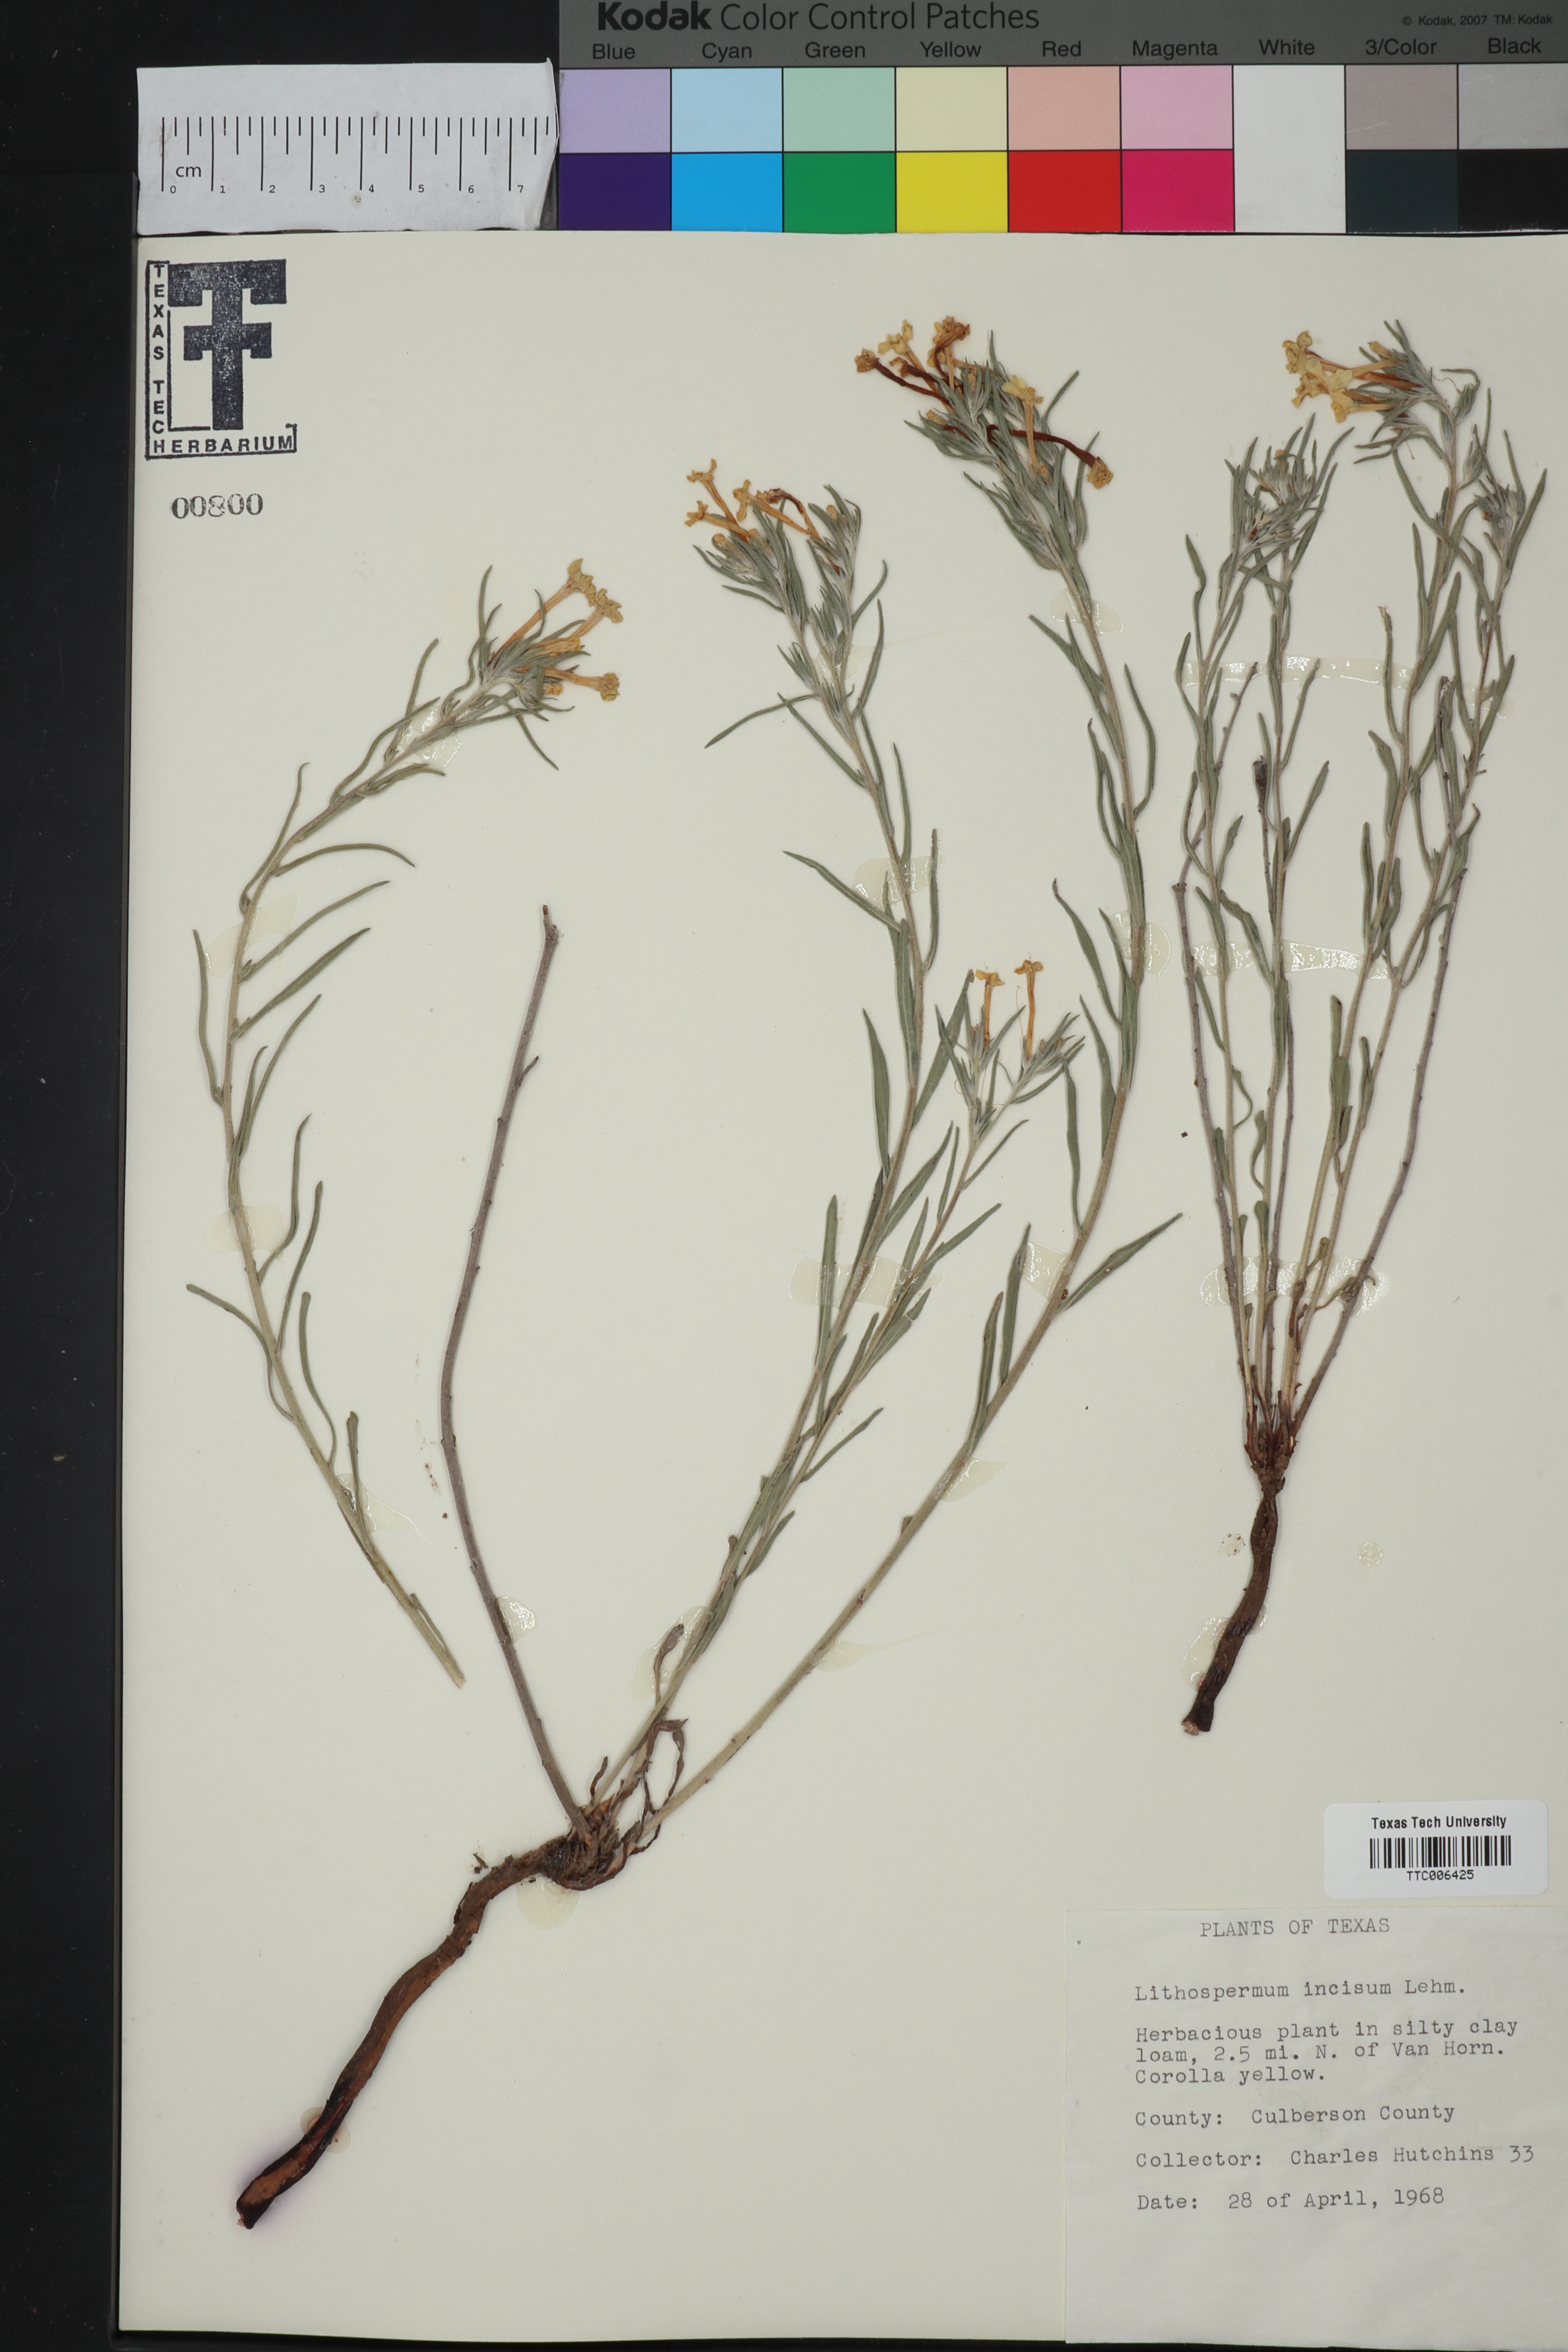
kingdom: Plantae
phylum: Tracheophyta
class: Magnoliopsida
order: Boraginales
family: Boraginaceae
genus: Lithospermum
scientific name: Lithospermum incisum
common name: Fringed gromwell
